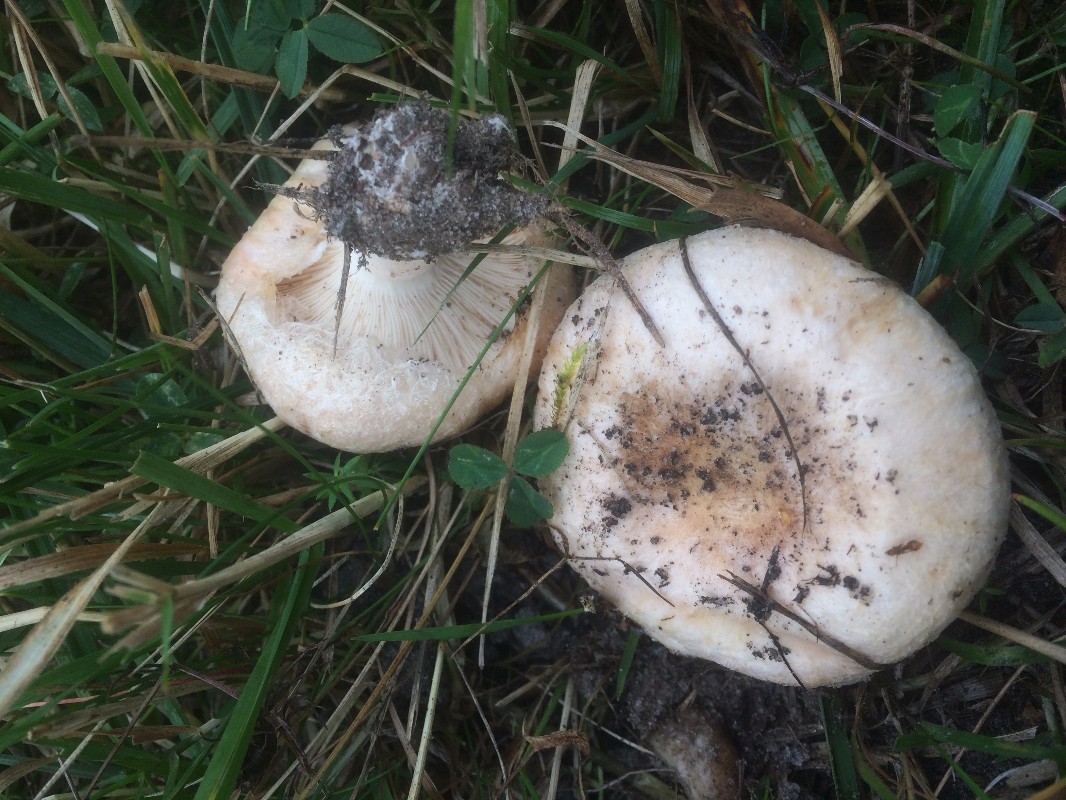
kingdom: Fungi
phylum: Basidiomycota
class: Agaricomycetes
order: Russulales
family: Russulaceae
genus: Lactarius
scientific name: Lactarius pubescens
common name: dunet mælkehat
